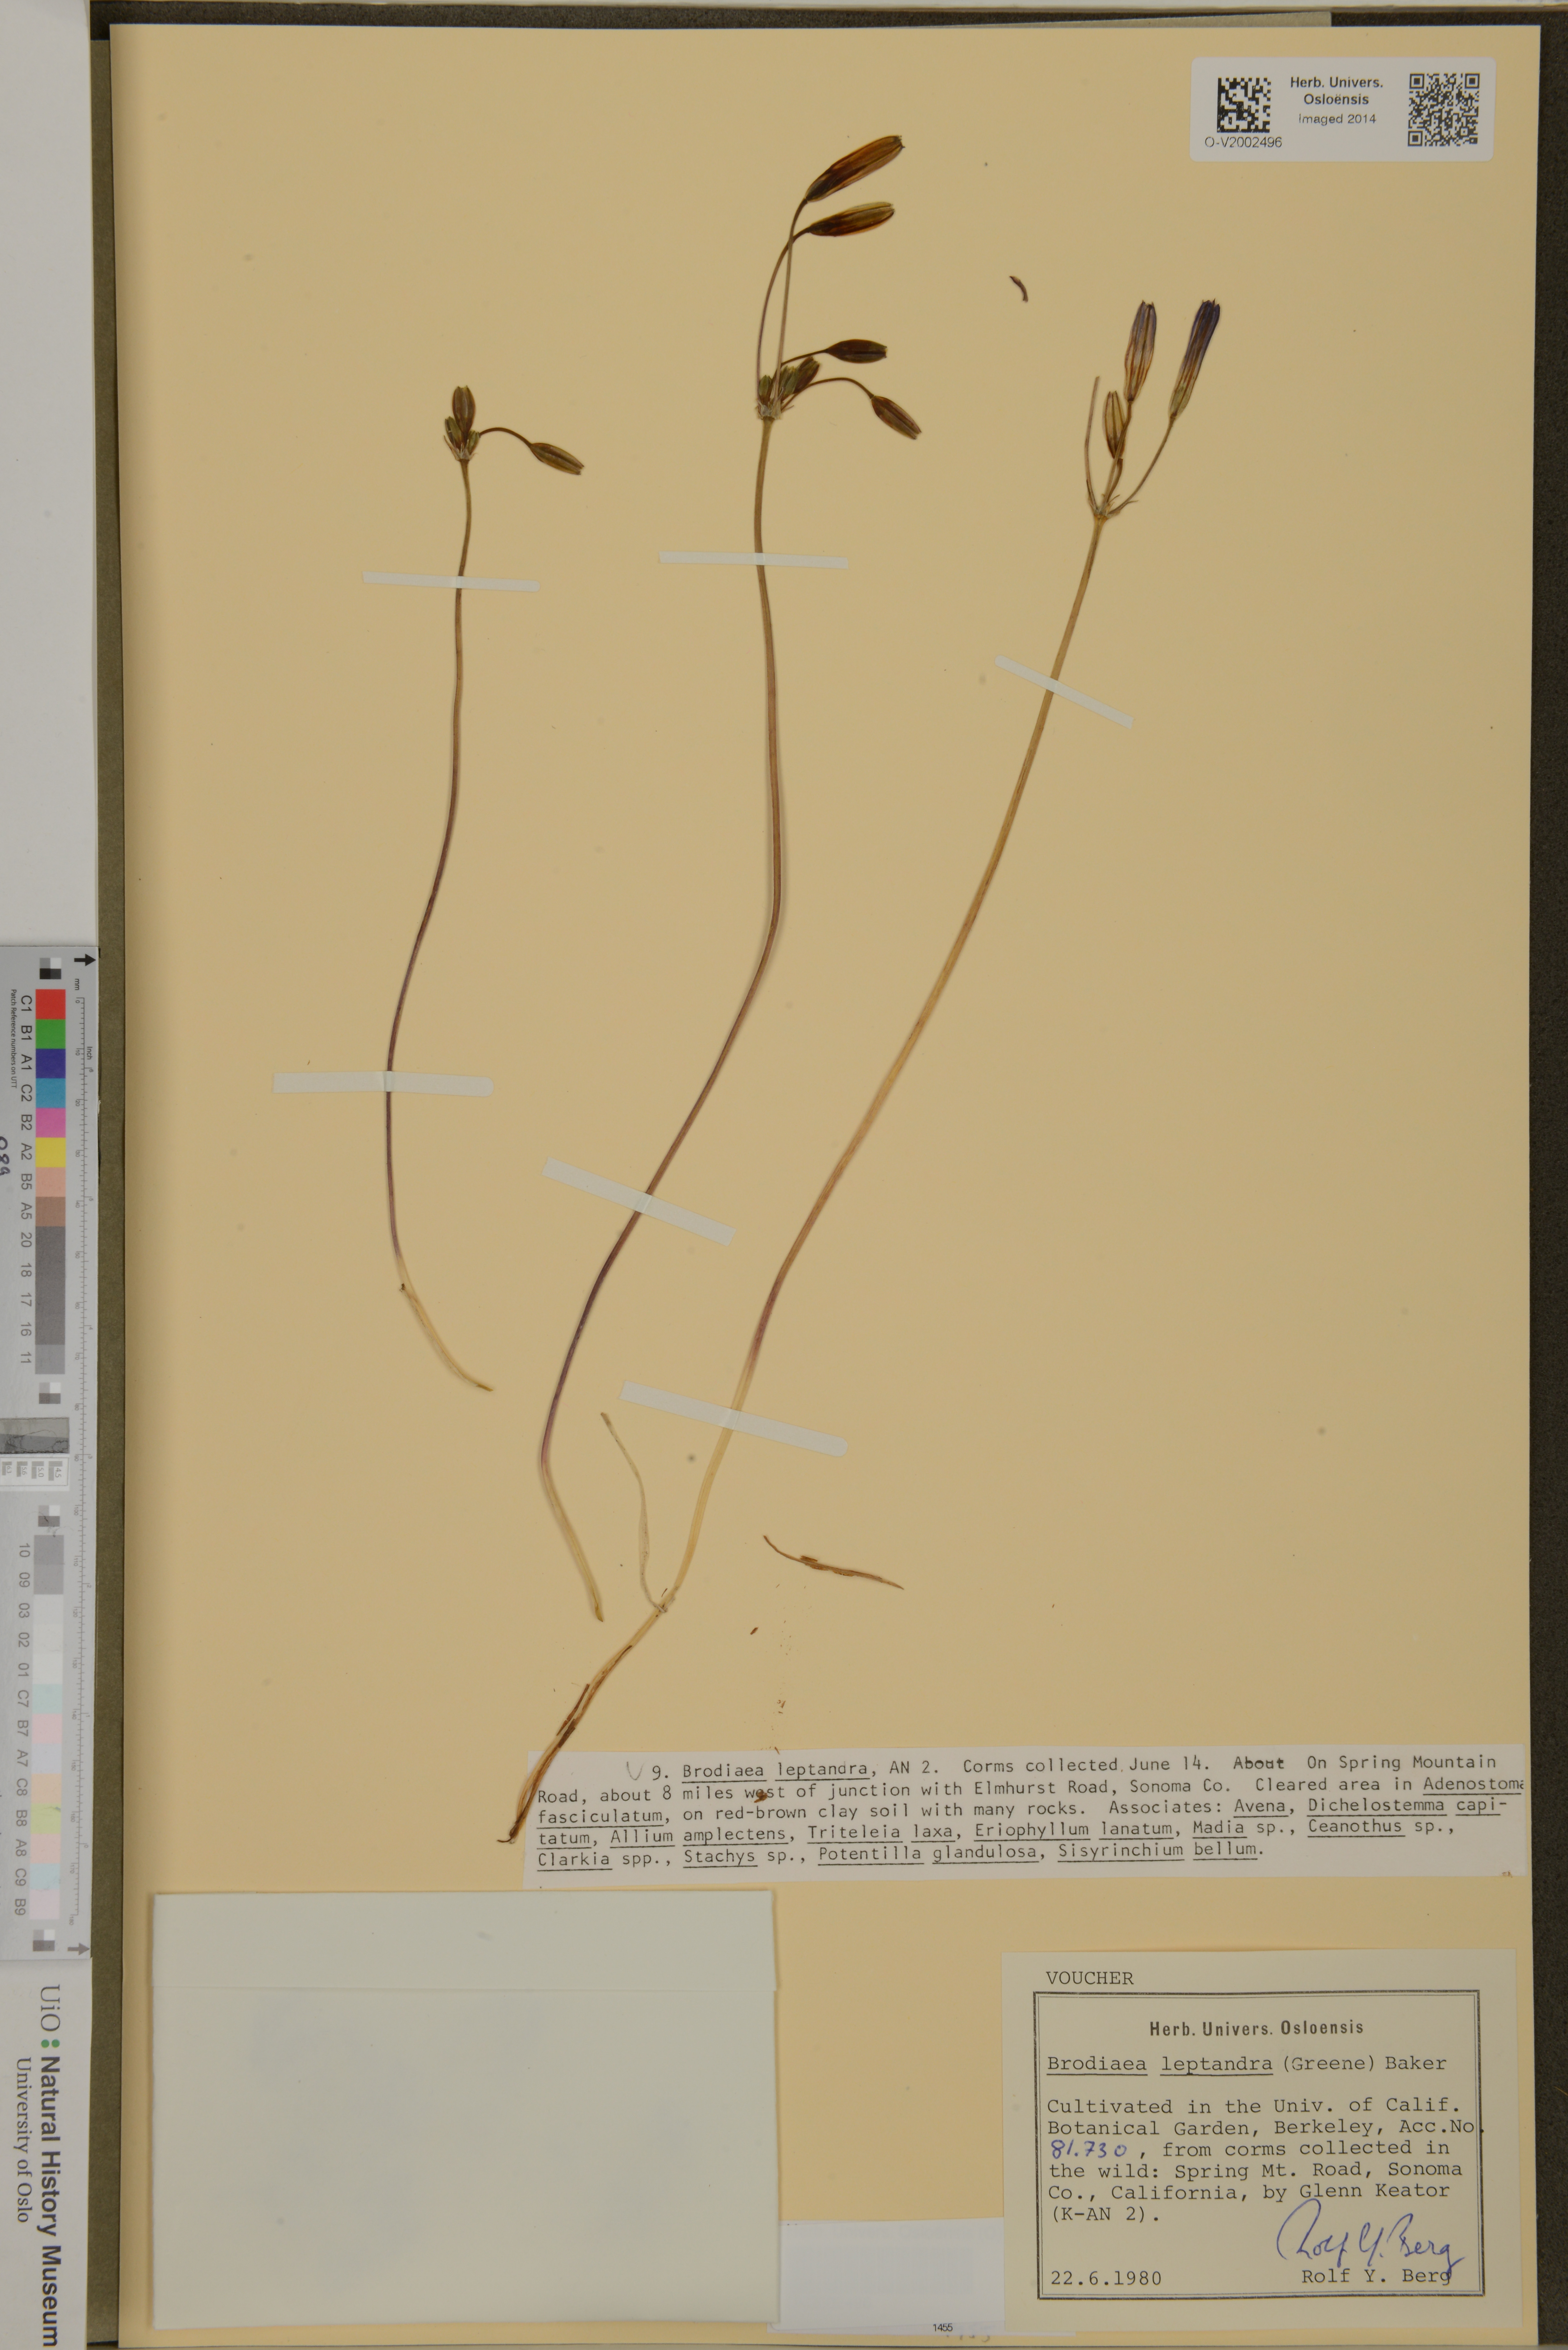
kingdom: Plantae
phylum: Tracheophyta
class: Liliopsida
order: Asparagales
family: Asparagaceae
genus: Brodiaea
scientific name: Brodiaea californica
